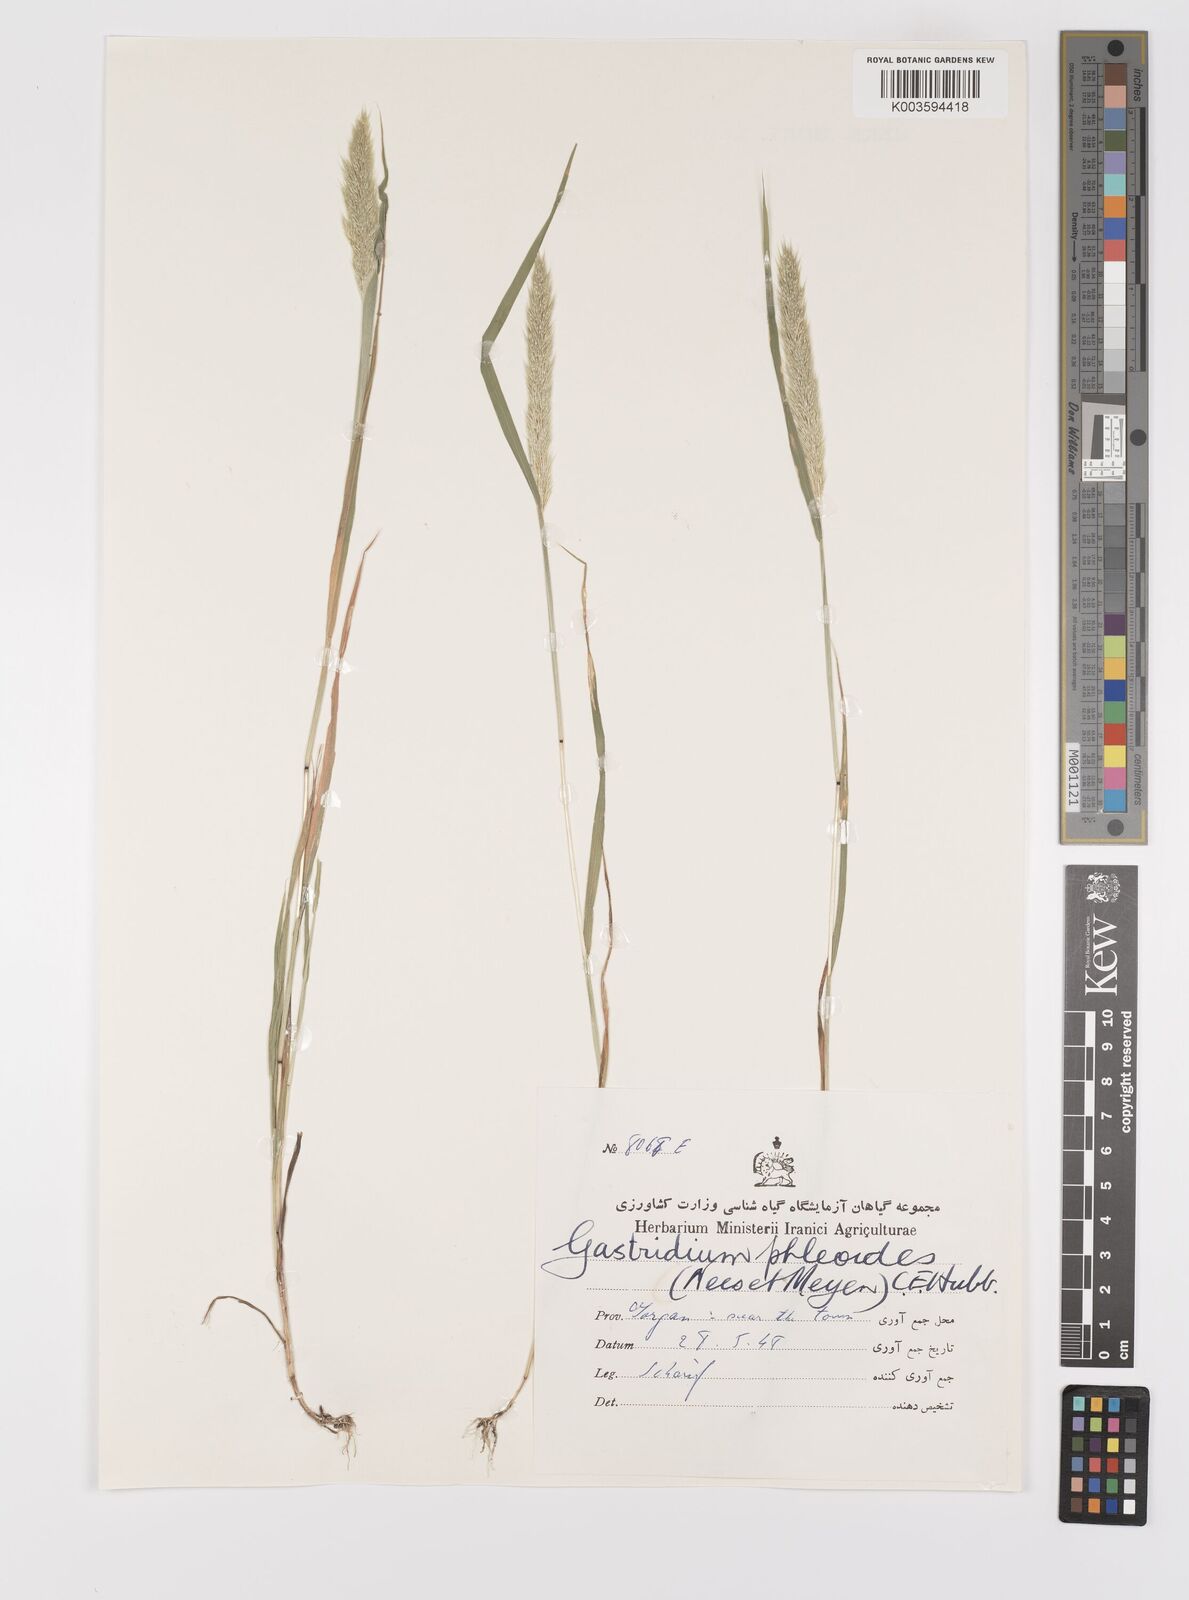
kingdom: Plantae
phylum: Tracheophyta
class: Liliopsida
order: Poales
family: Poaceae
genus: Gastridium
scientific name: Gastridium phleoides
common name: Nit grass
